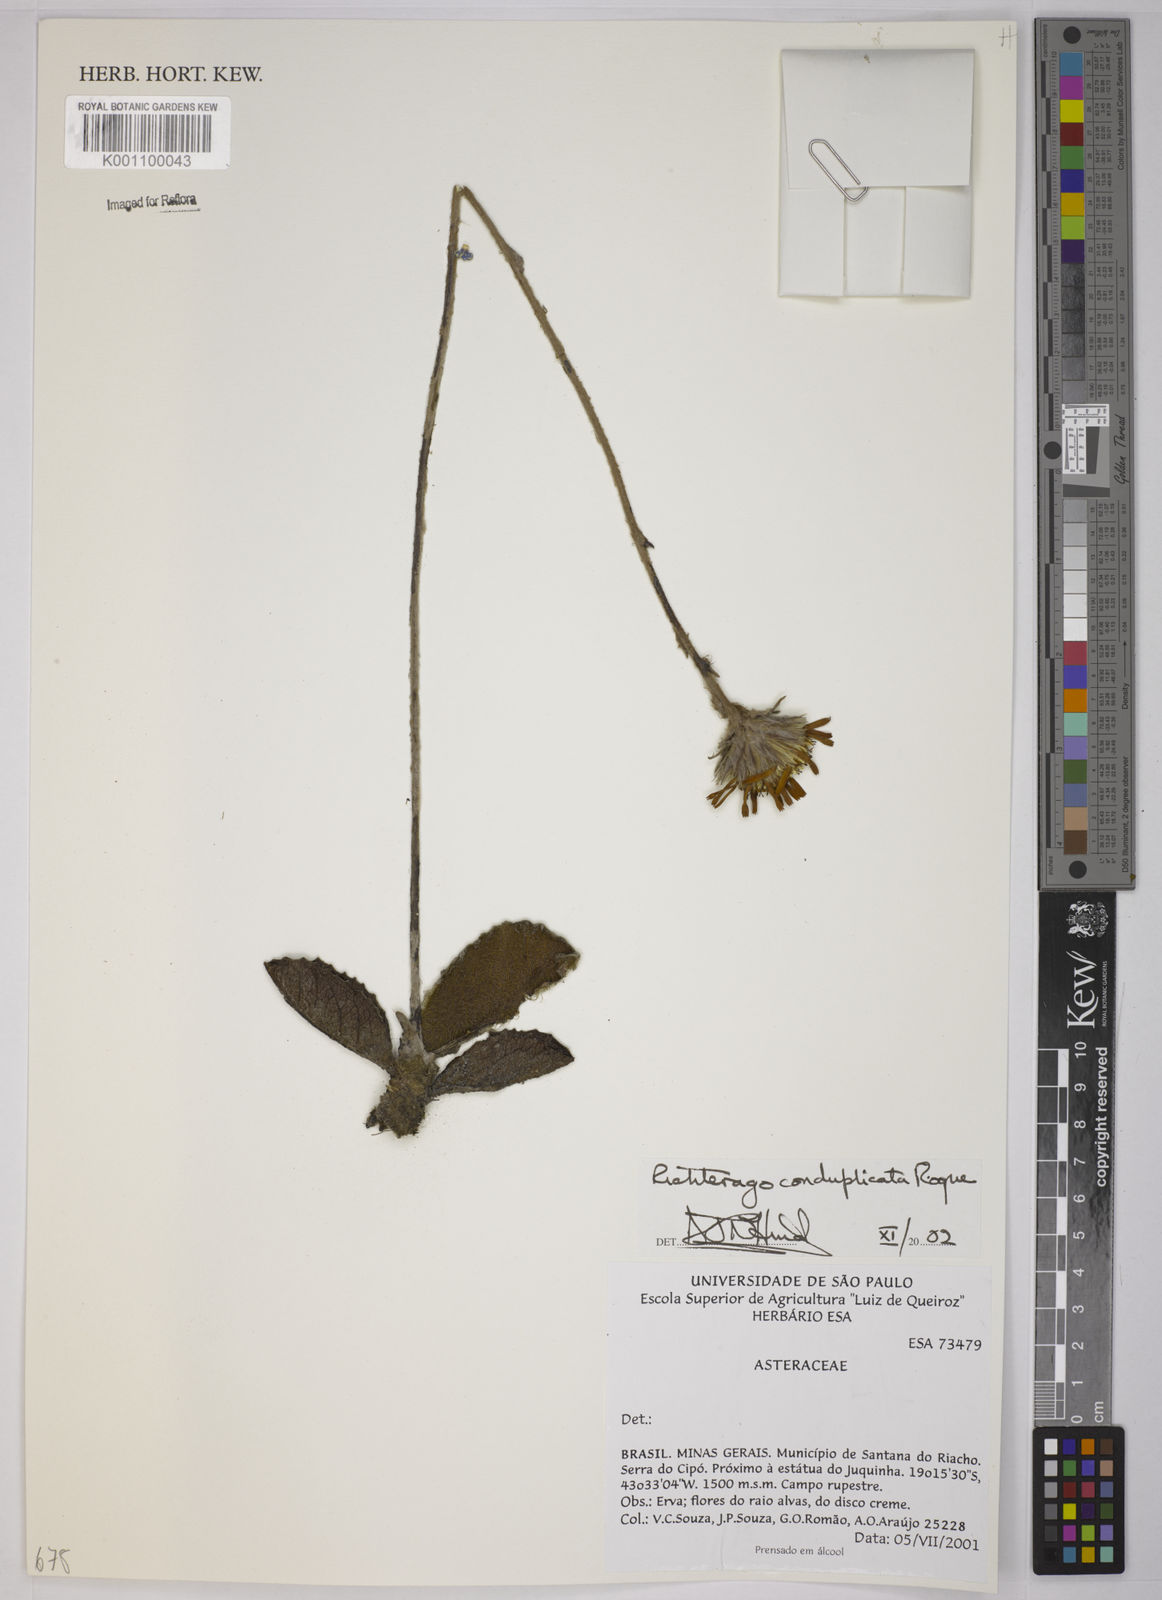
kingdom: Plantae
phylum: Tracheophyta
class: Magnoliopsida
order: Asterales
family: Asteraceae
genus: Richterago
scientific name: Richterago conduplicata
